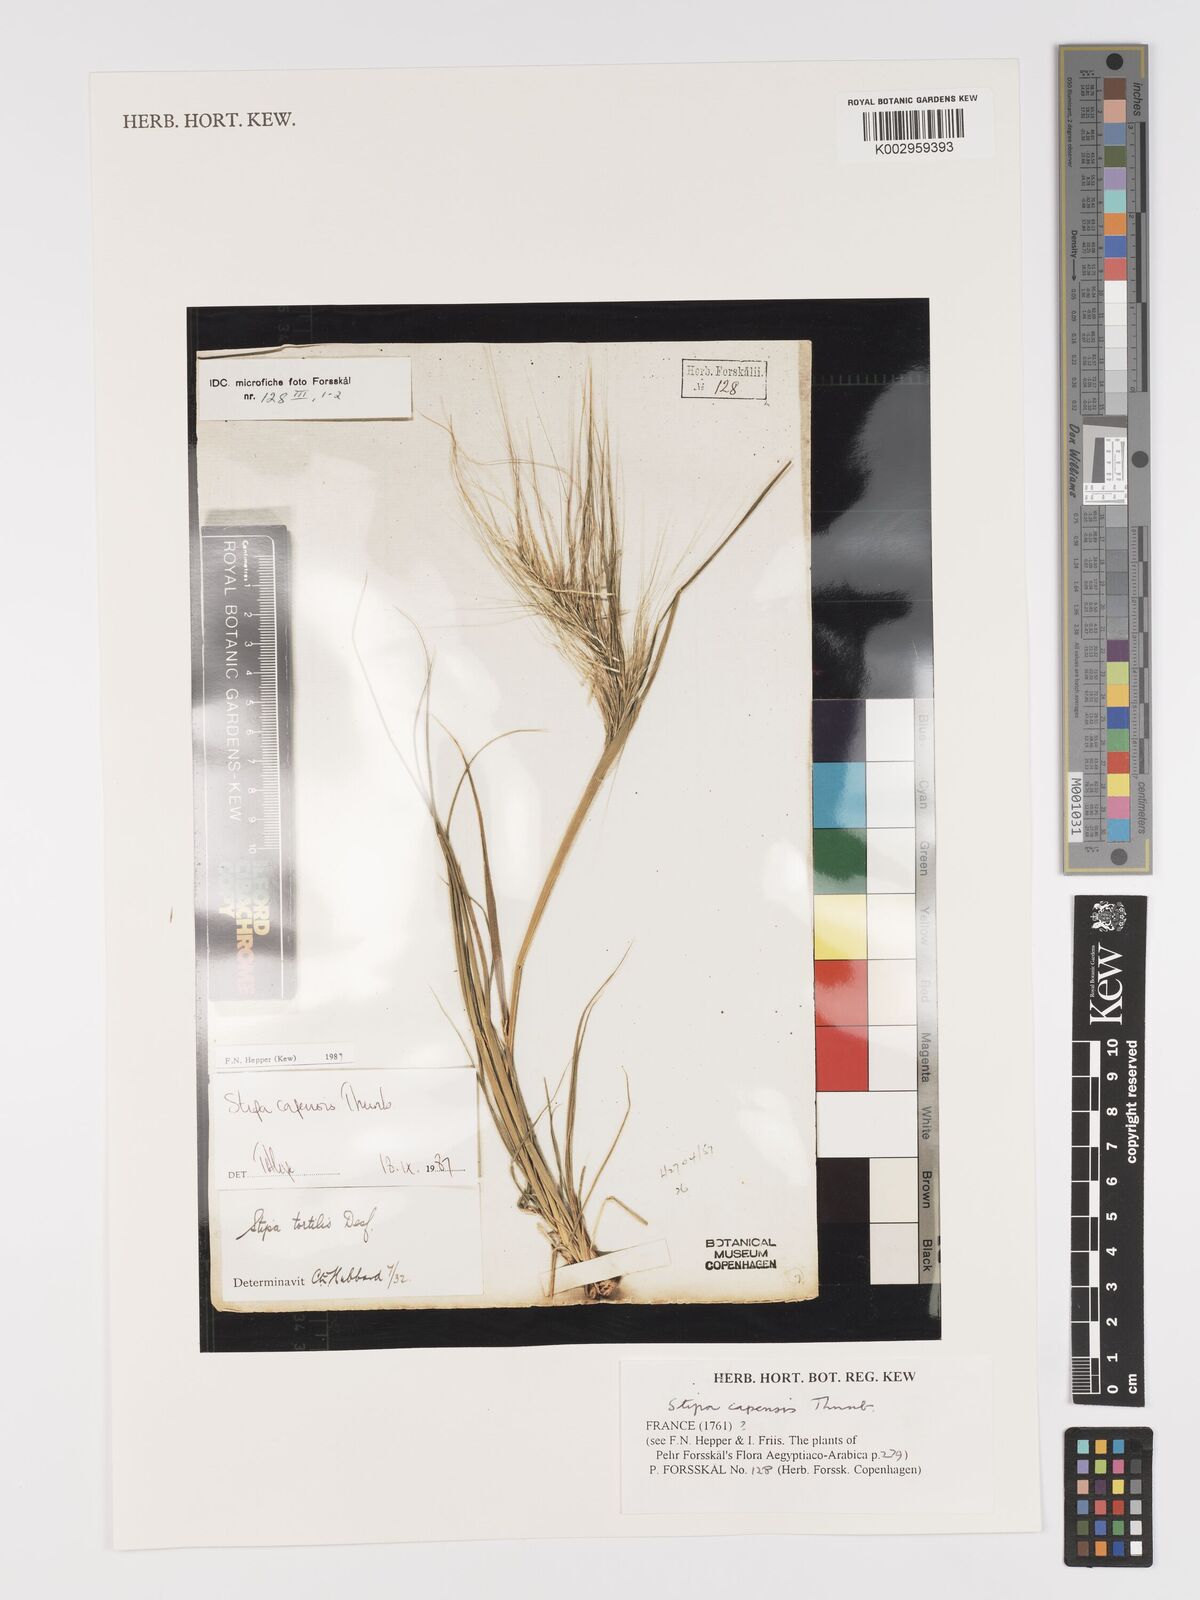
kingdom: Plantae
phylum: Tracheophyta
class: Liliopsida
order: Poales
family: Poaceae
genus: Stipellula
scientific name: Stipellula capensis
